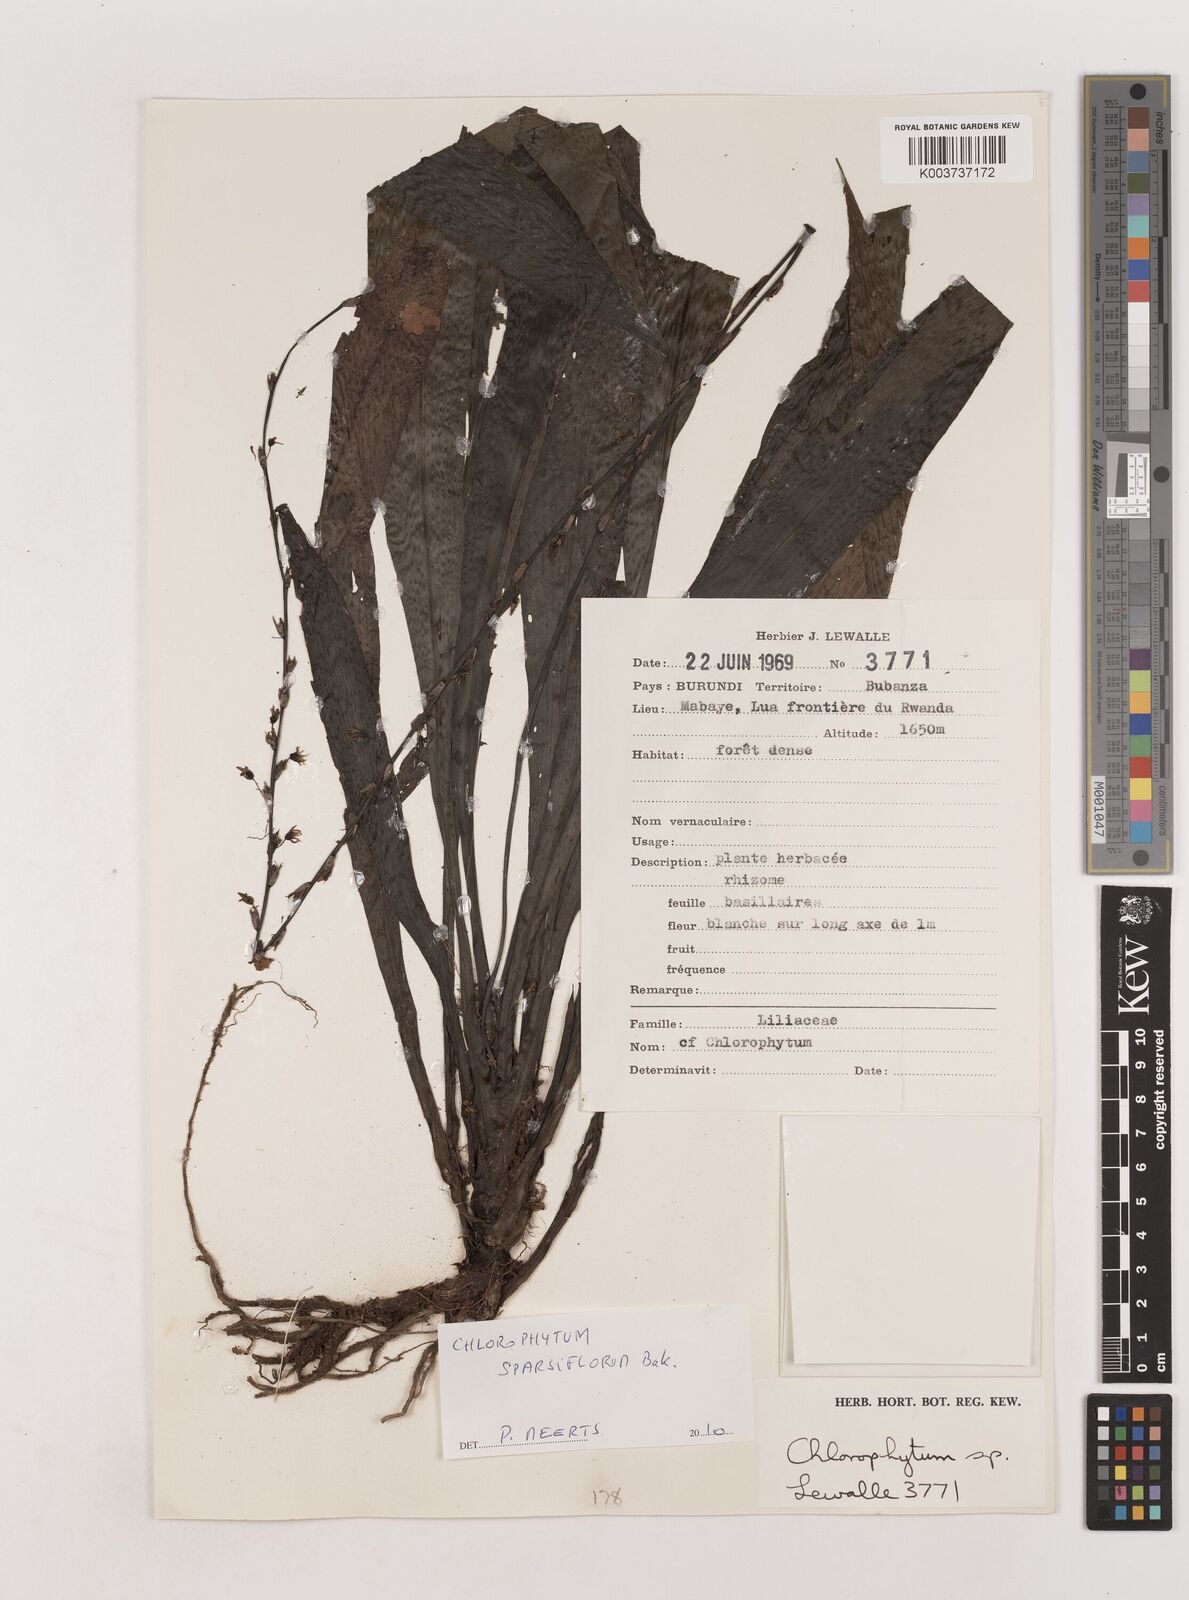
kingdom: Plantae
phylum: Tracheophyta
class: Liliopsida
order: Asparagales
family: Asparagaceae
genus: Chlorophytum
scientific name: Chlorophytum sparsiflorum
